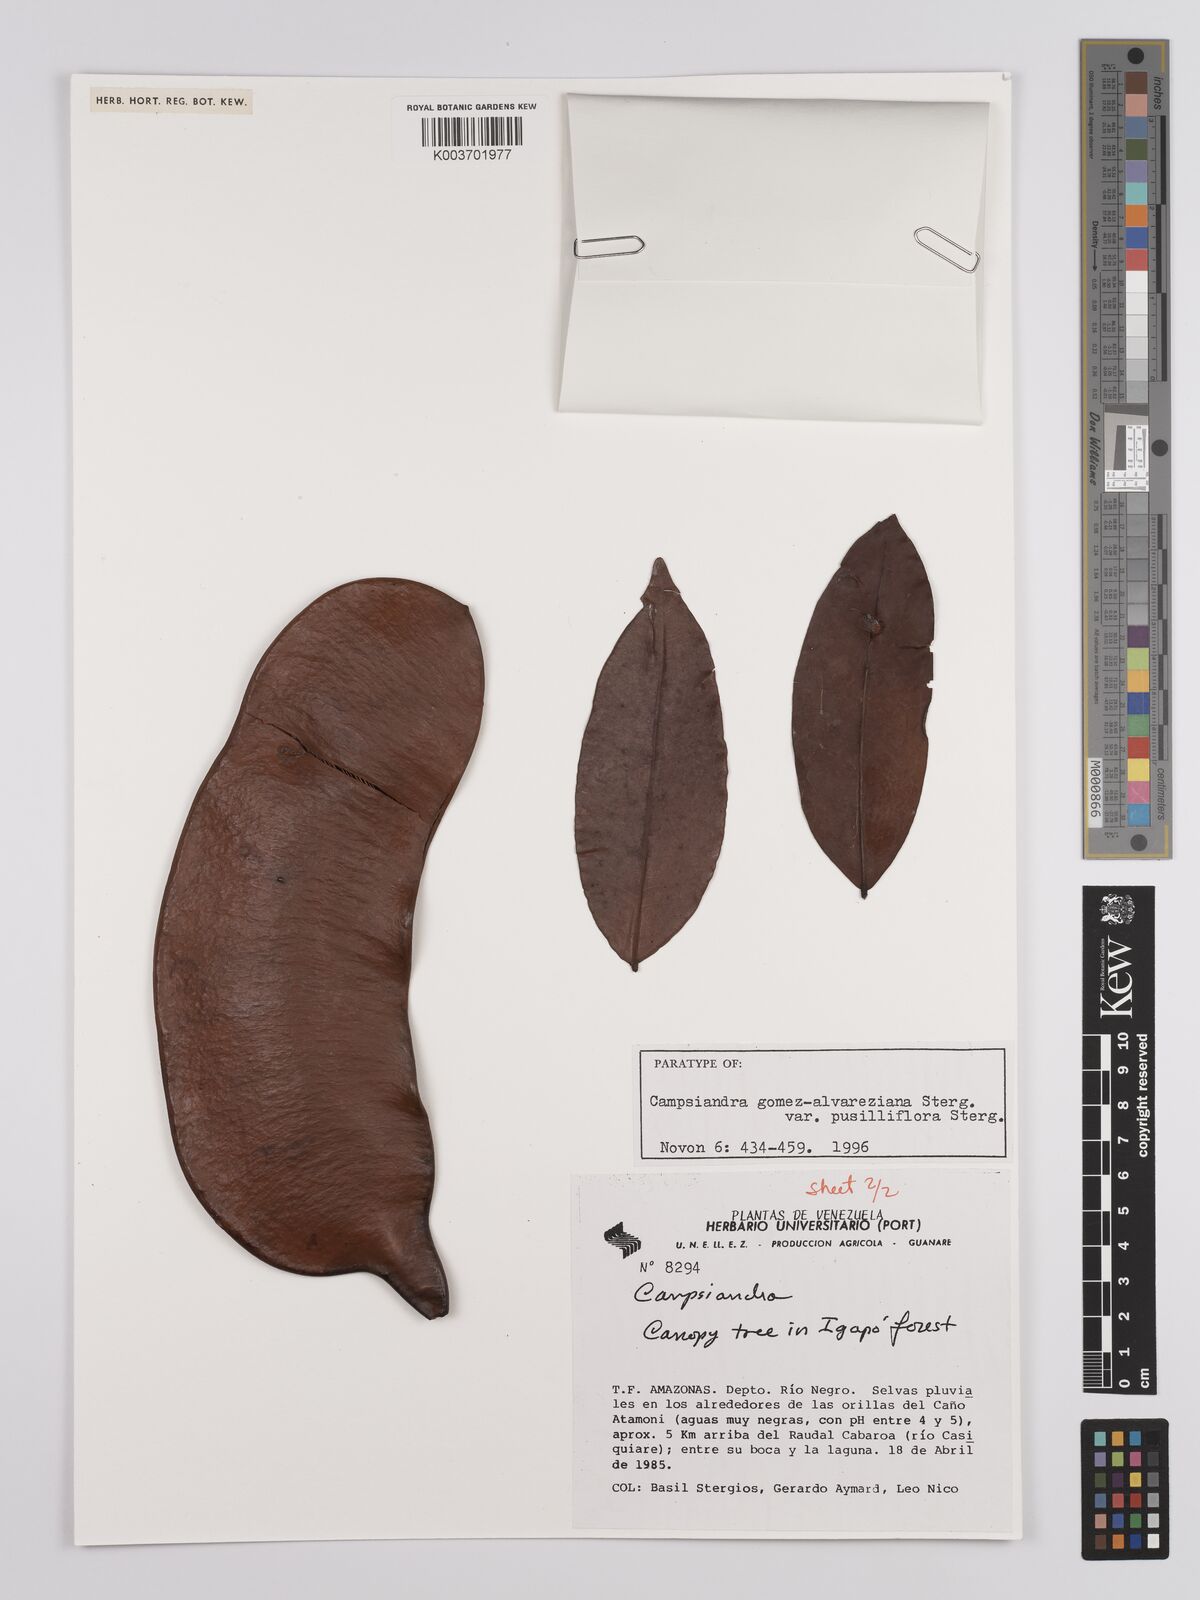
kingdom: Plantae
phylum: Tracheophyta
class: Magnoliopsida
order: Fabales
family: Fabaceae
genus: Campsiandra
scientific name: Campsiandra gomez-alvareziana
